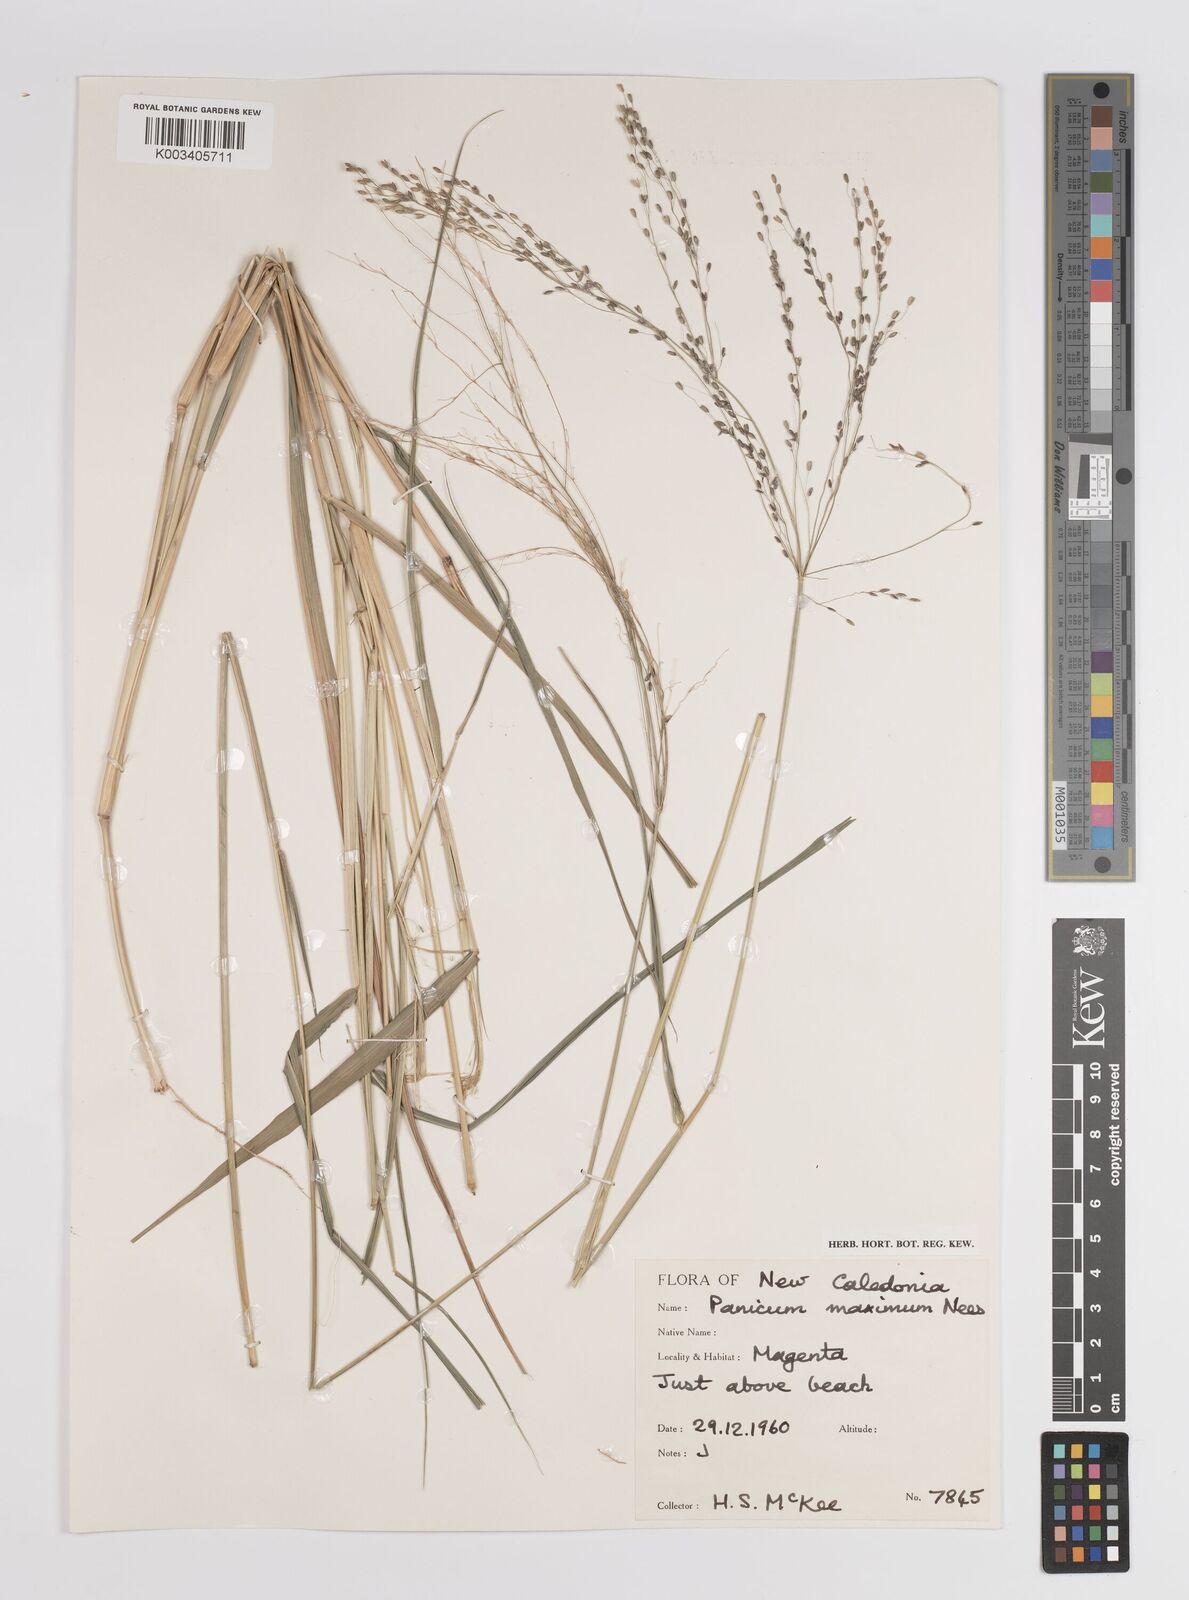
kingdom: Plantae
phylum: Tracheophyta
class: Liliopsida
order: Poales
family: Poaceae
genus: Megathyrsus
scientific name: Megathyrsus maximus
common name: Guineagrass
